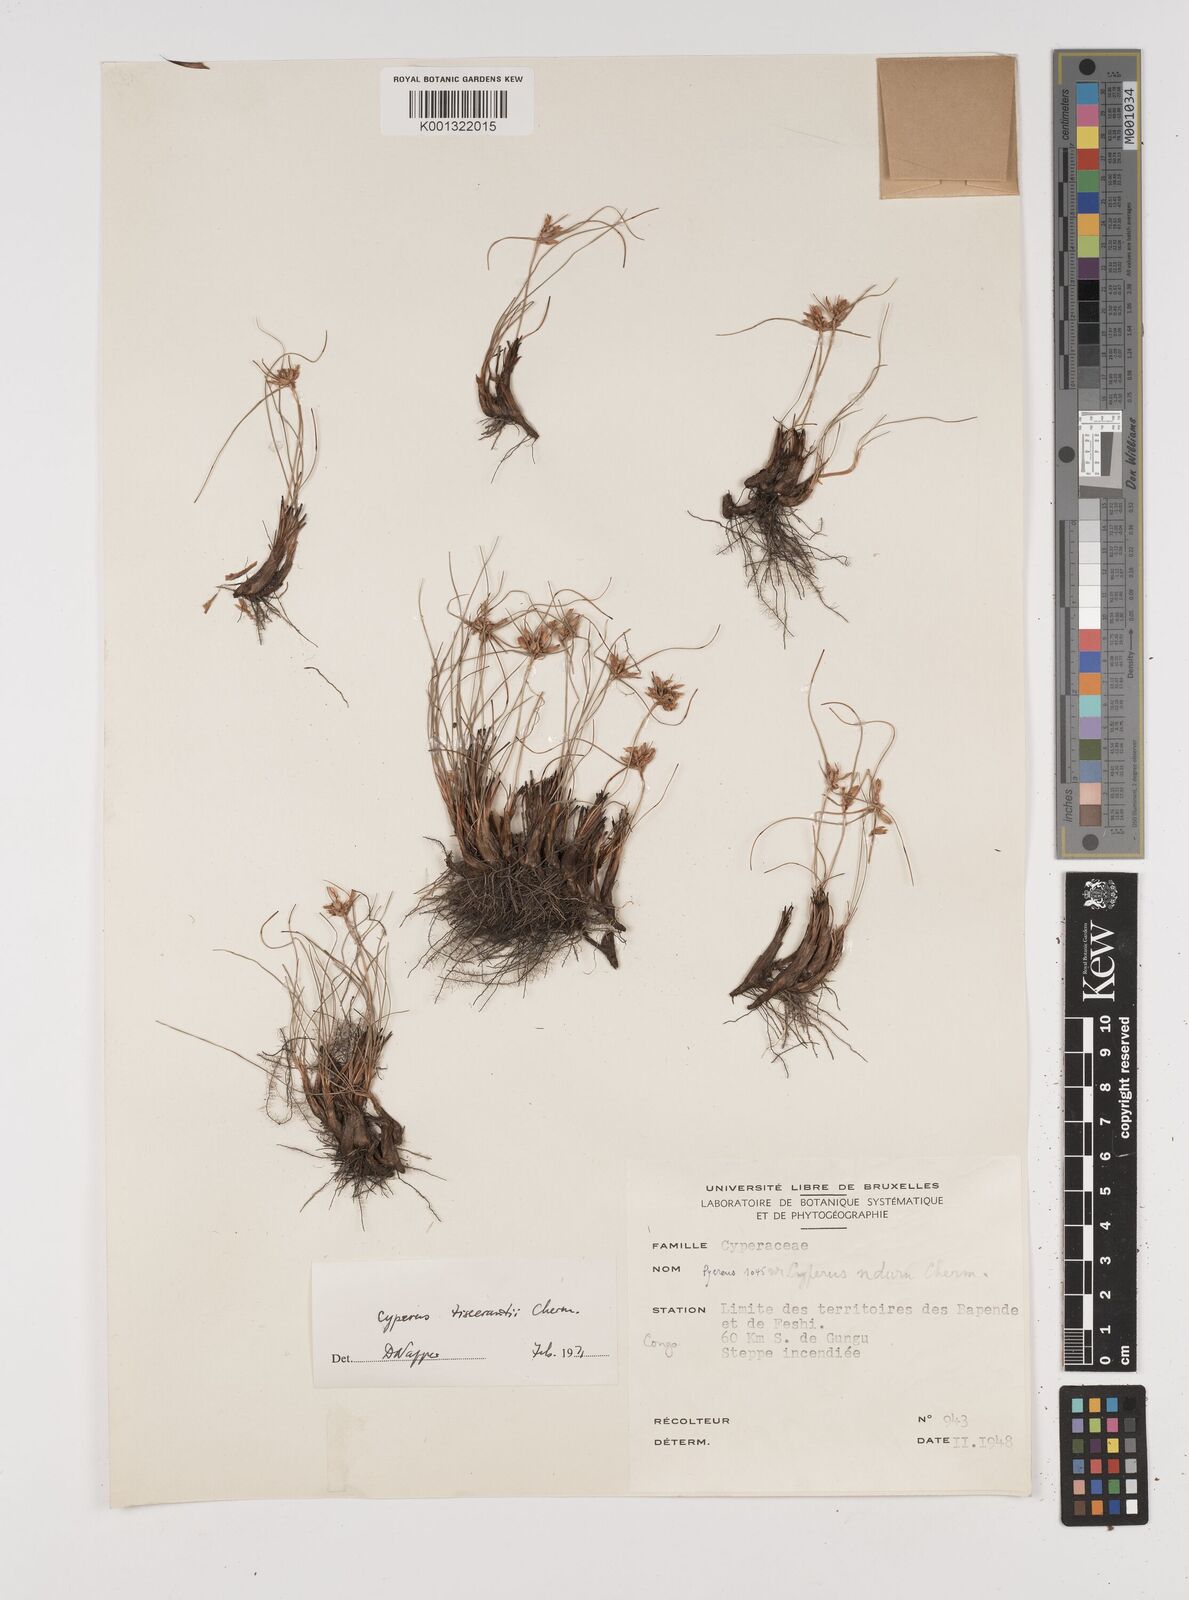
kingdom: Plantae
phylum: Tracheophyta
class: Liliopsida
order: Poales
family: Cyperaceae
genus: Cyperus
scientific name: Cyperus niveus
